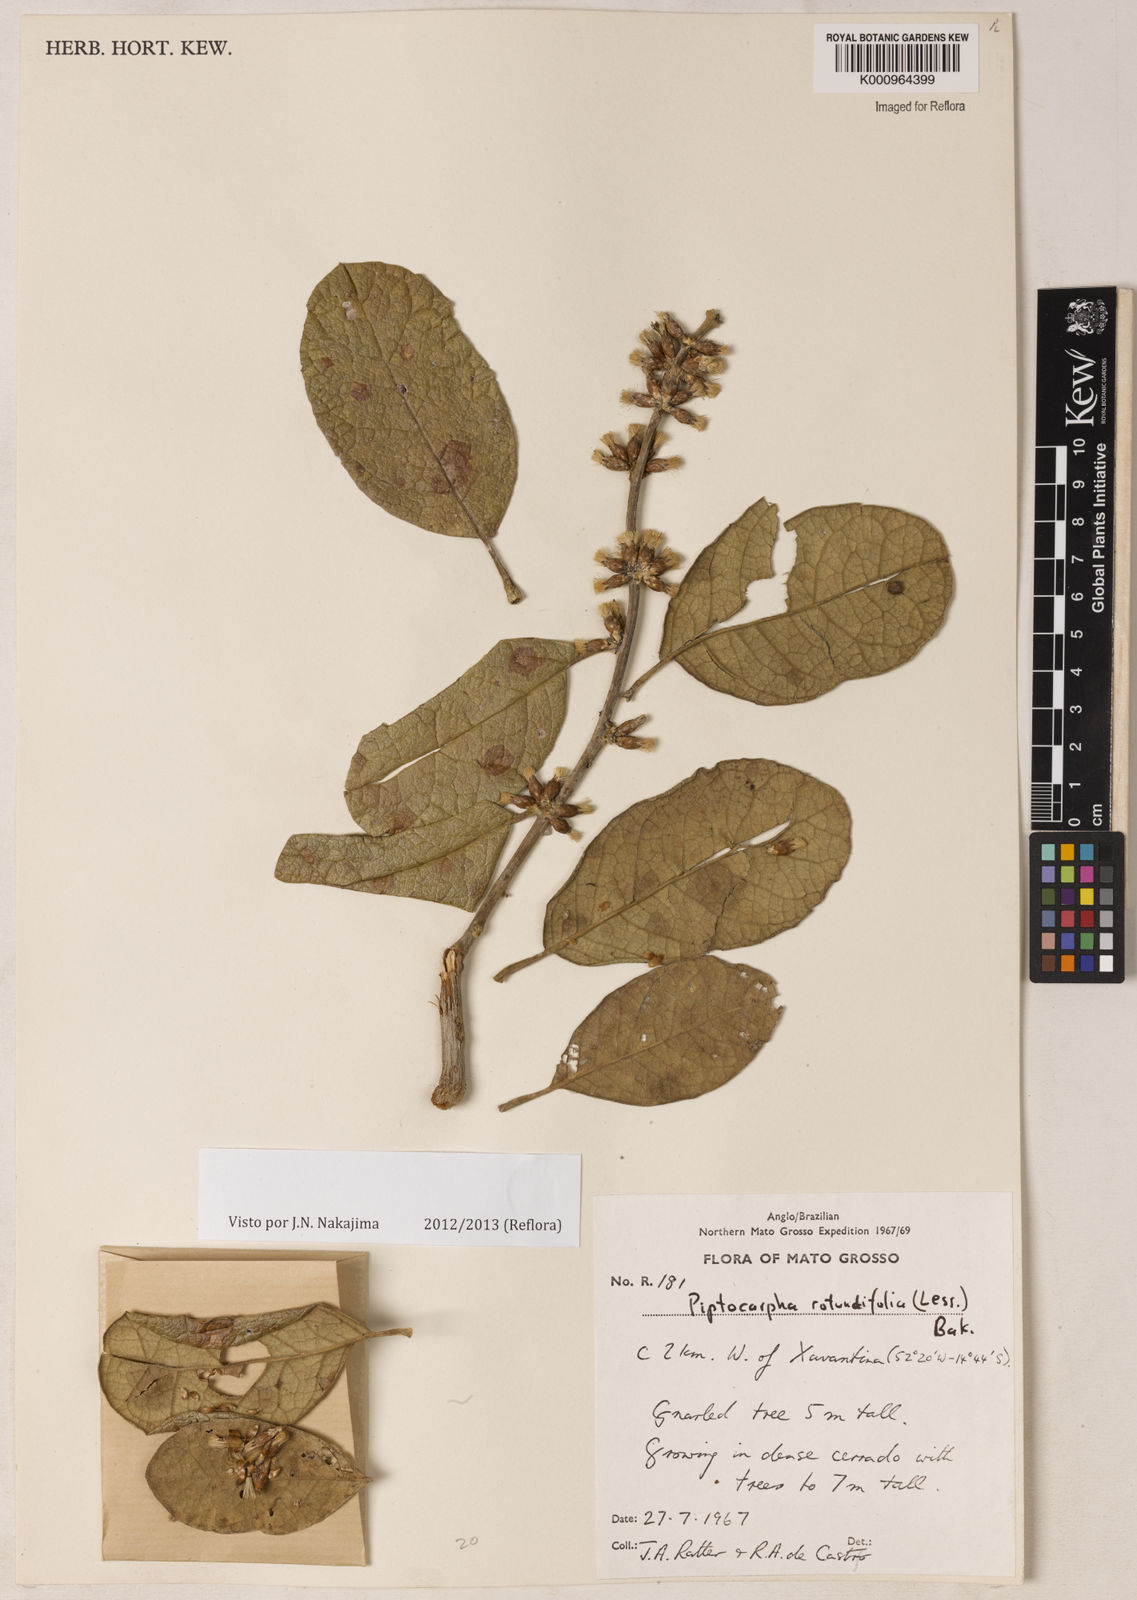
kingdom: Plantae
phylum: Tracheophyta
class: Magnoliopsida
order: Asterales
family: Asteraceae
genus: Piptocarpha
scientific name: Piptocarpha rotundifolia
